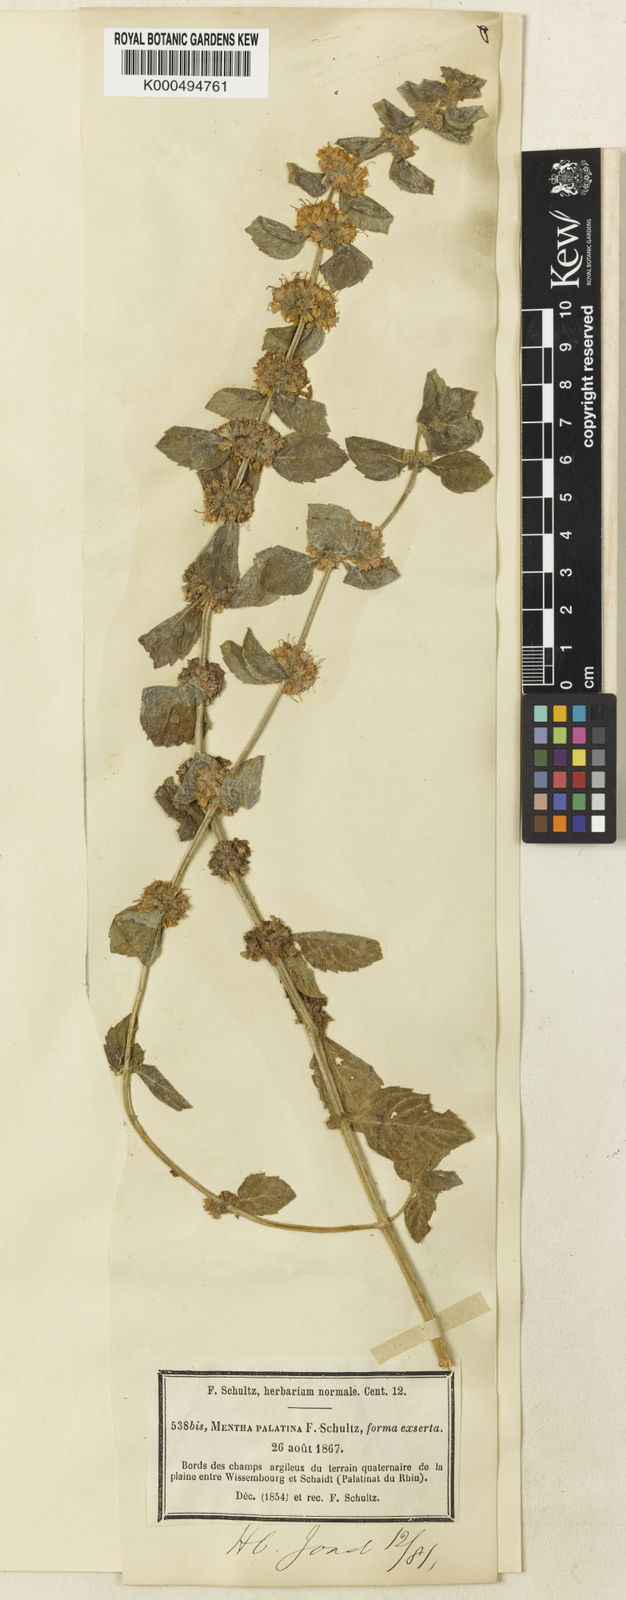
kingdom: Plantae
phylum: Tracheophyta
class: Magnoliopsida
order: Lamiales
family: Lamiaceae
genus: Mentha
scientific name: Mentha arvensis
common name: Corn mint
